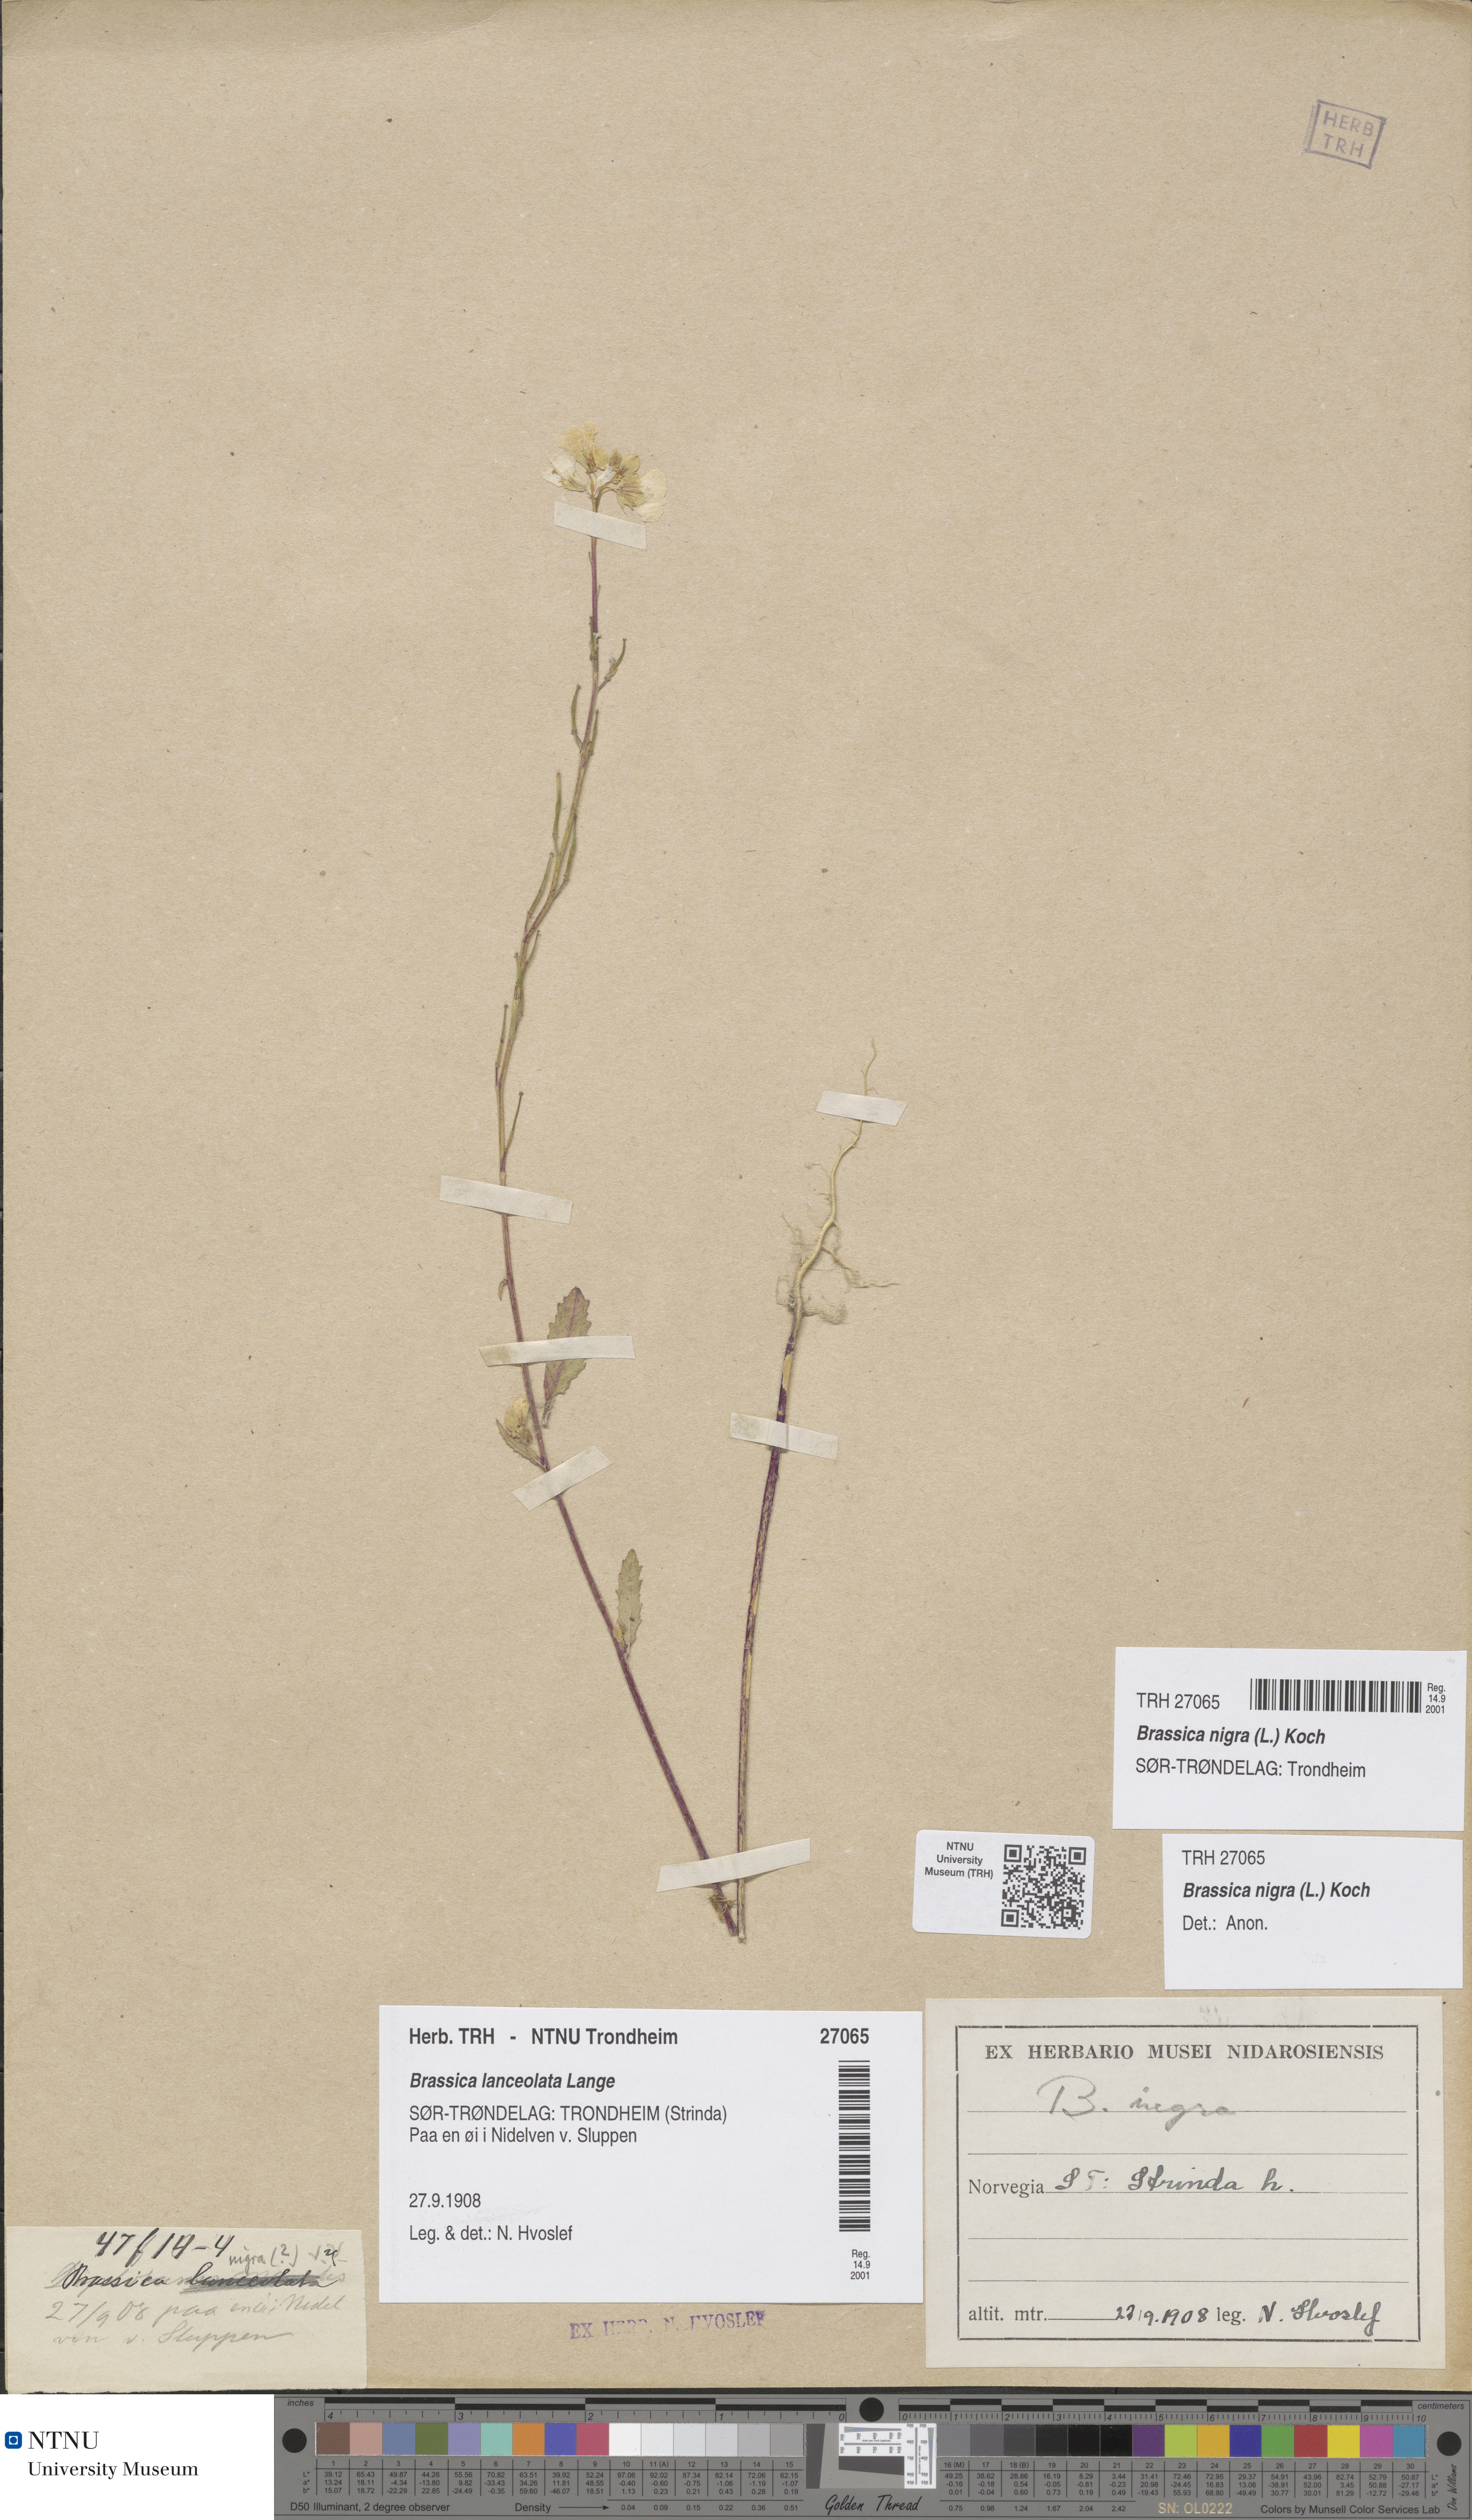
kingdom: Plantae
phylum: Tracheophyta
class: Magnoliopsida
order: Brassicales
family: Brassicaceae
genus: Brassica
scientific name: Brassica nigra
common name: Black mustard
